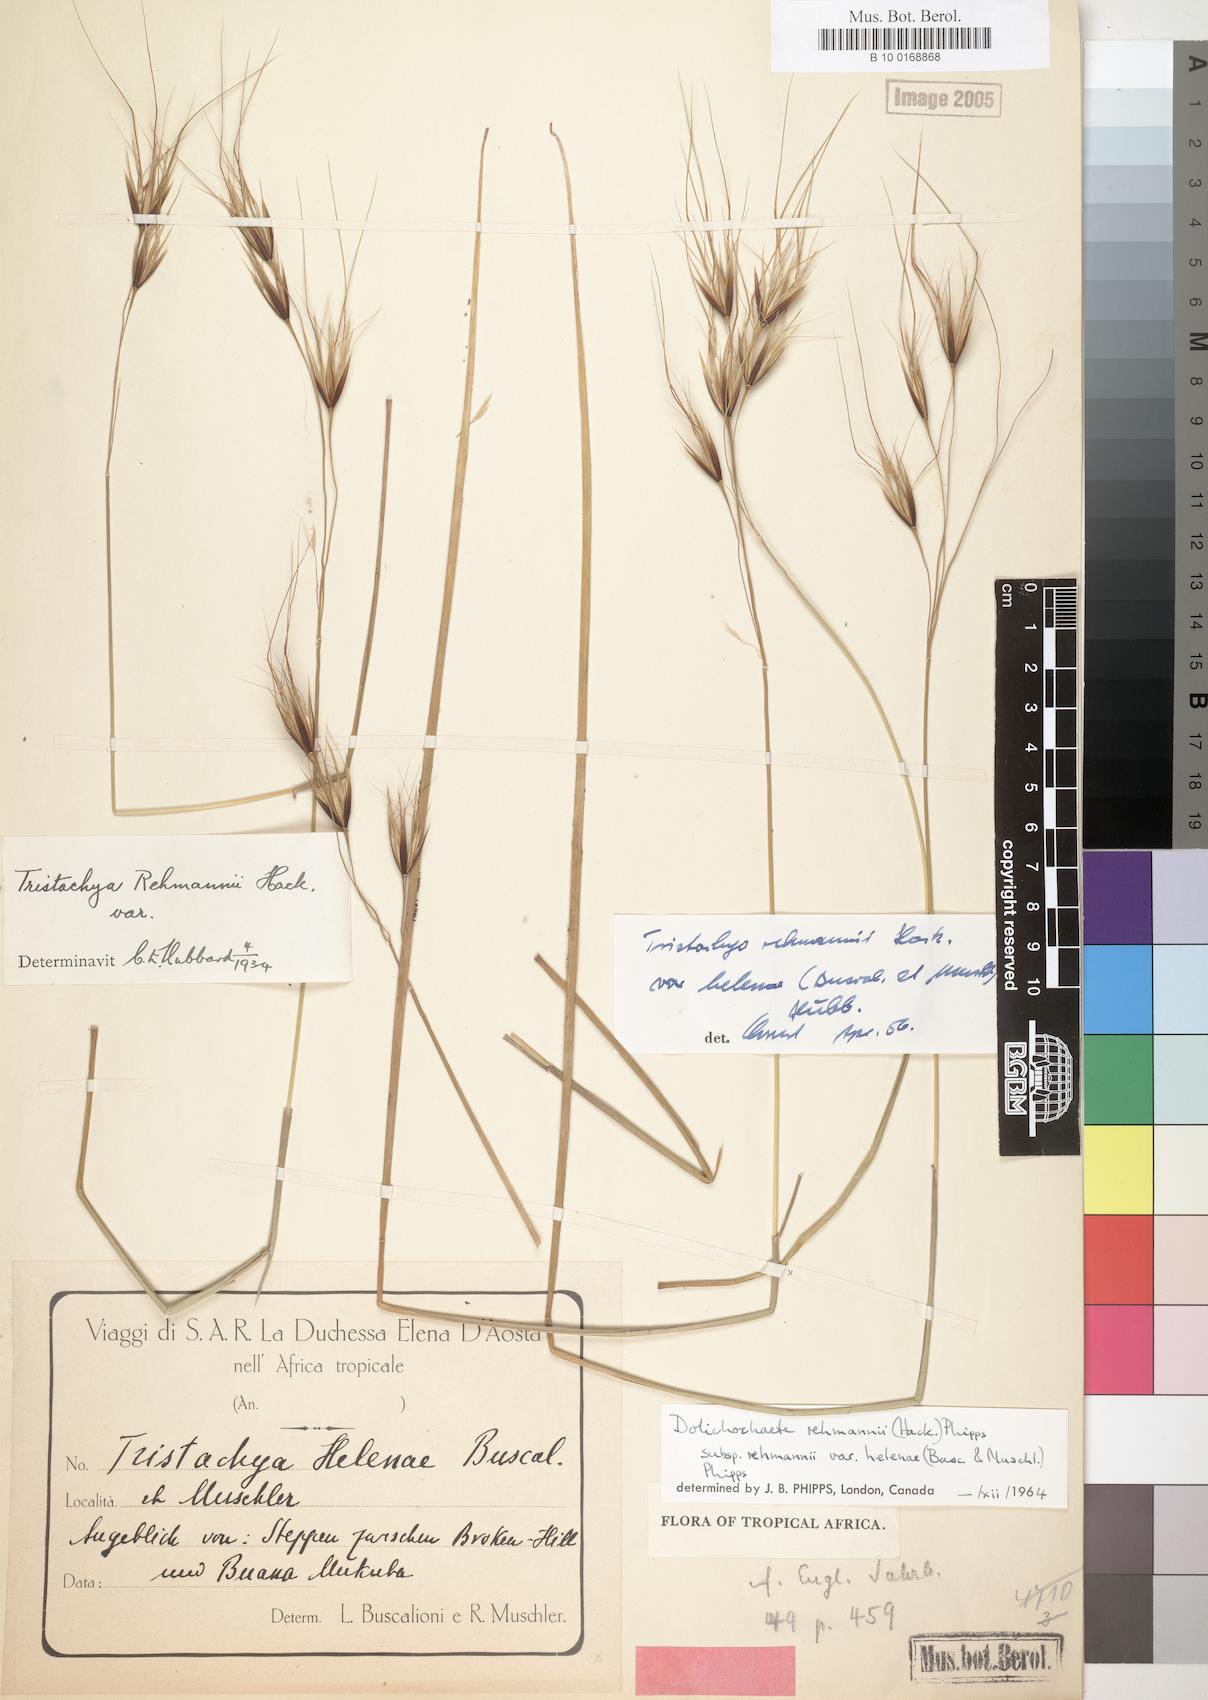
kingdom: Plantae
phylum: Tracheophyta
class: Liliopsida
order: Poales
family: Poaceae
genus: Tristachya
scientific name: Tristachya rehmannii
